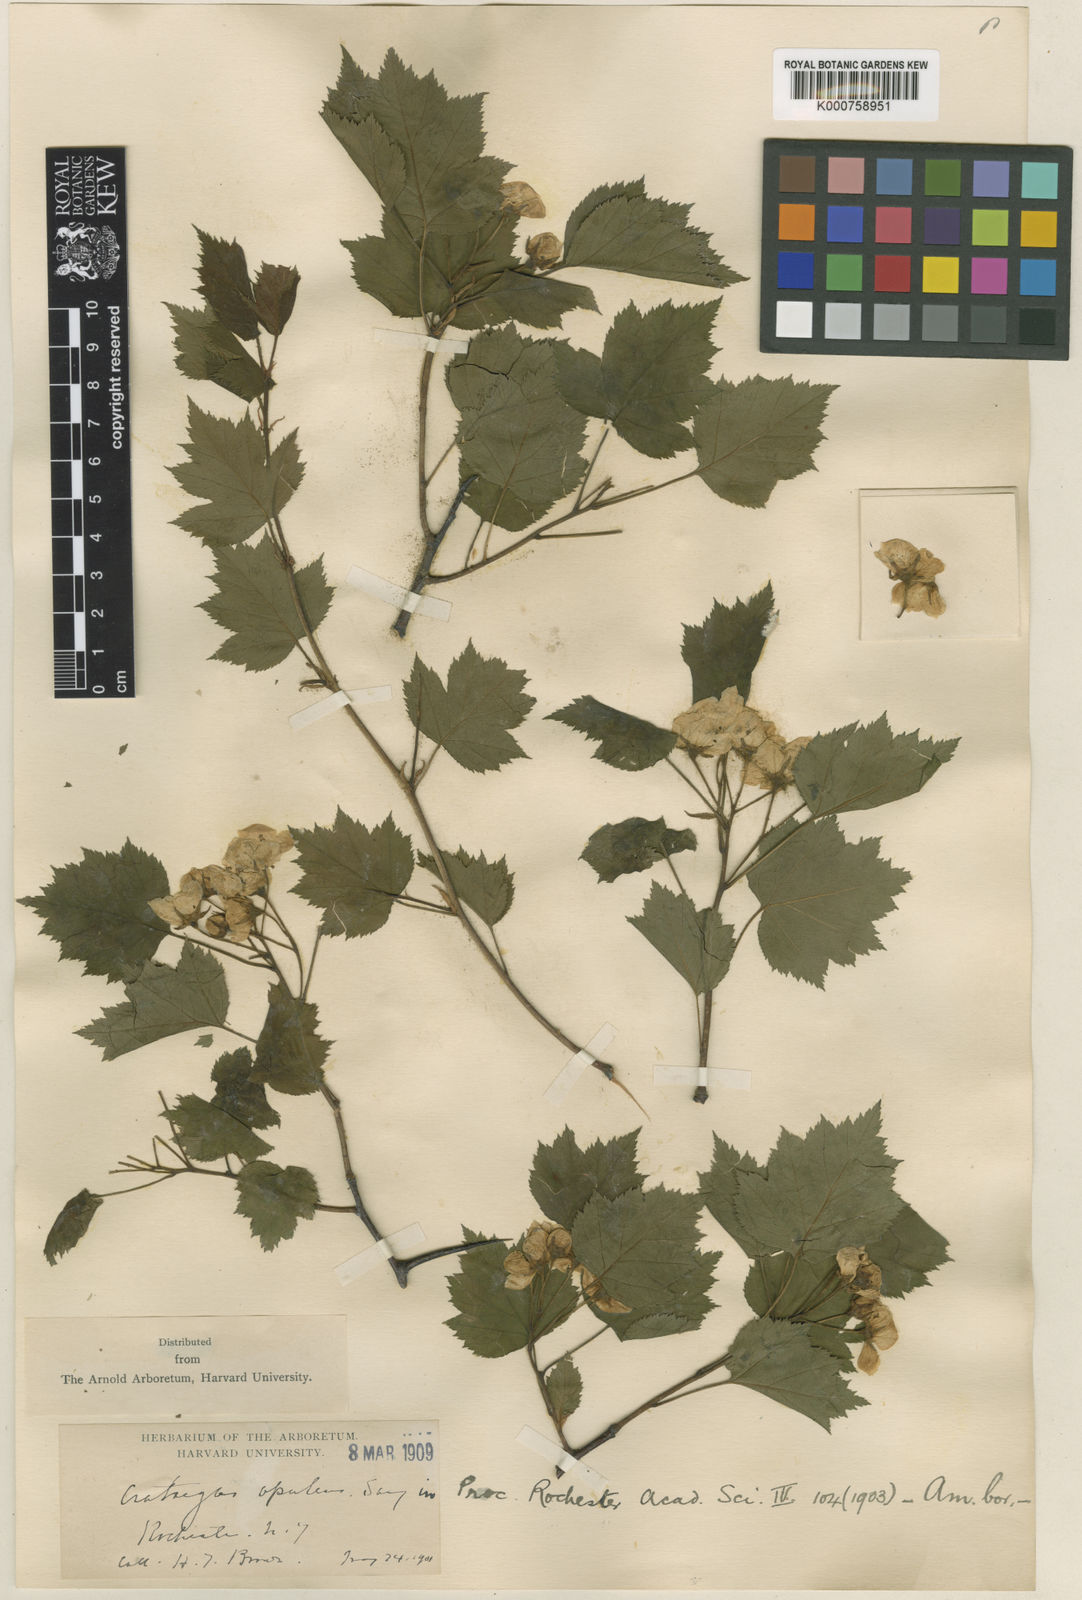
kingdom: Plantae
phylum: Tracheophyta
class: Magnoliopsida
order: Rosales
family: Rosaceae
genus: Crataegus
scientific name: Crataegus opulens
